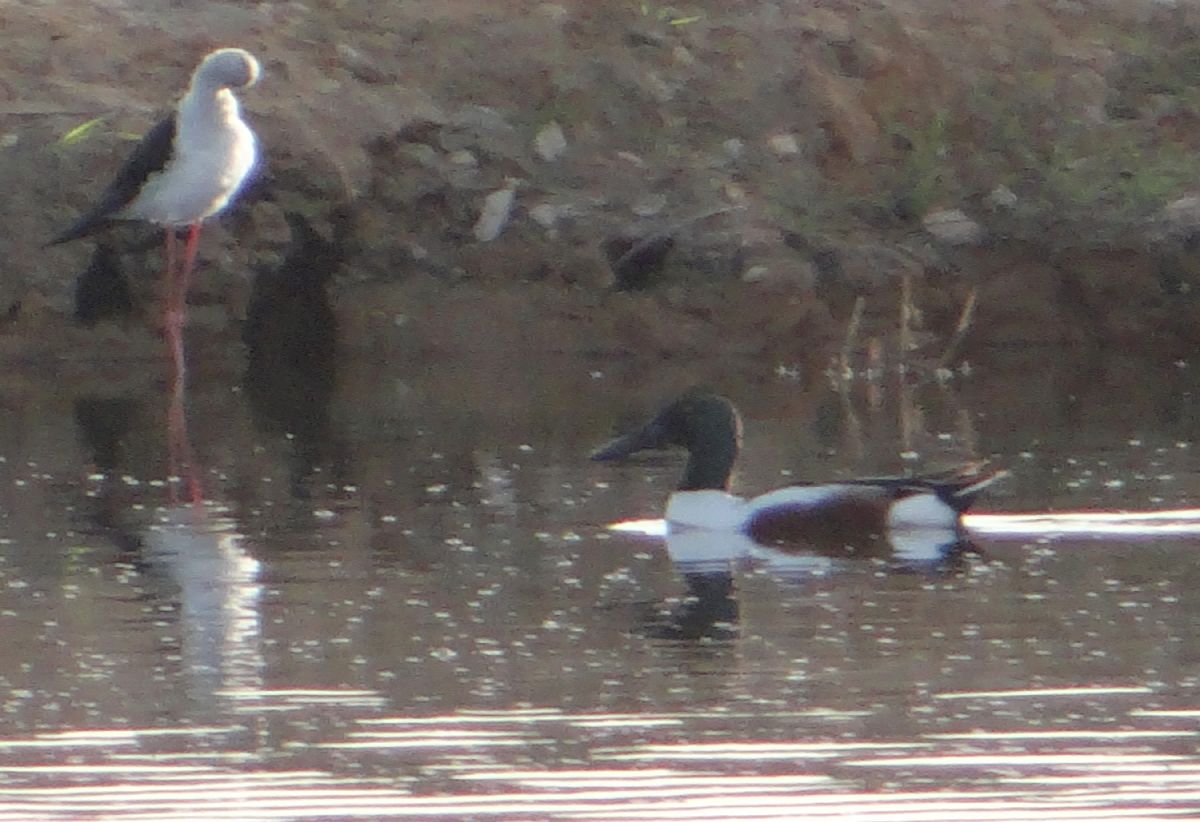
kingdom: Animalia
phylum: Chordata
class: Aves
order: Anseriformes
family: Anatidae
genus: Spatula
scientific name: Spatula clypeata
